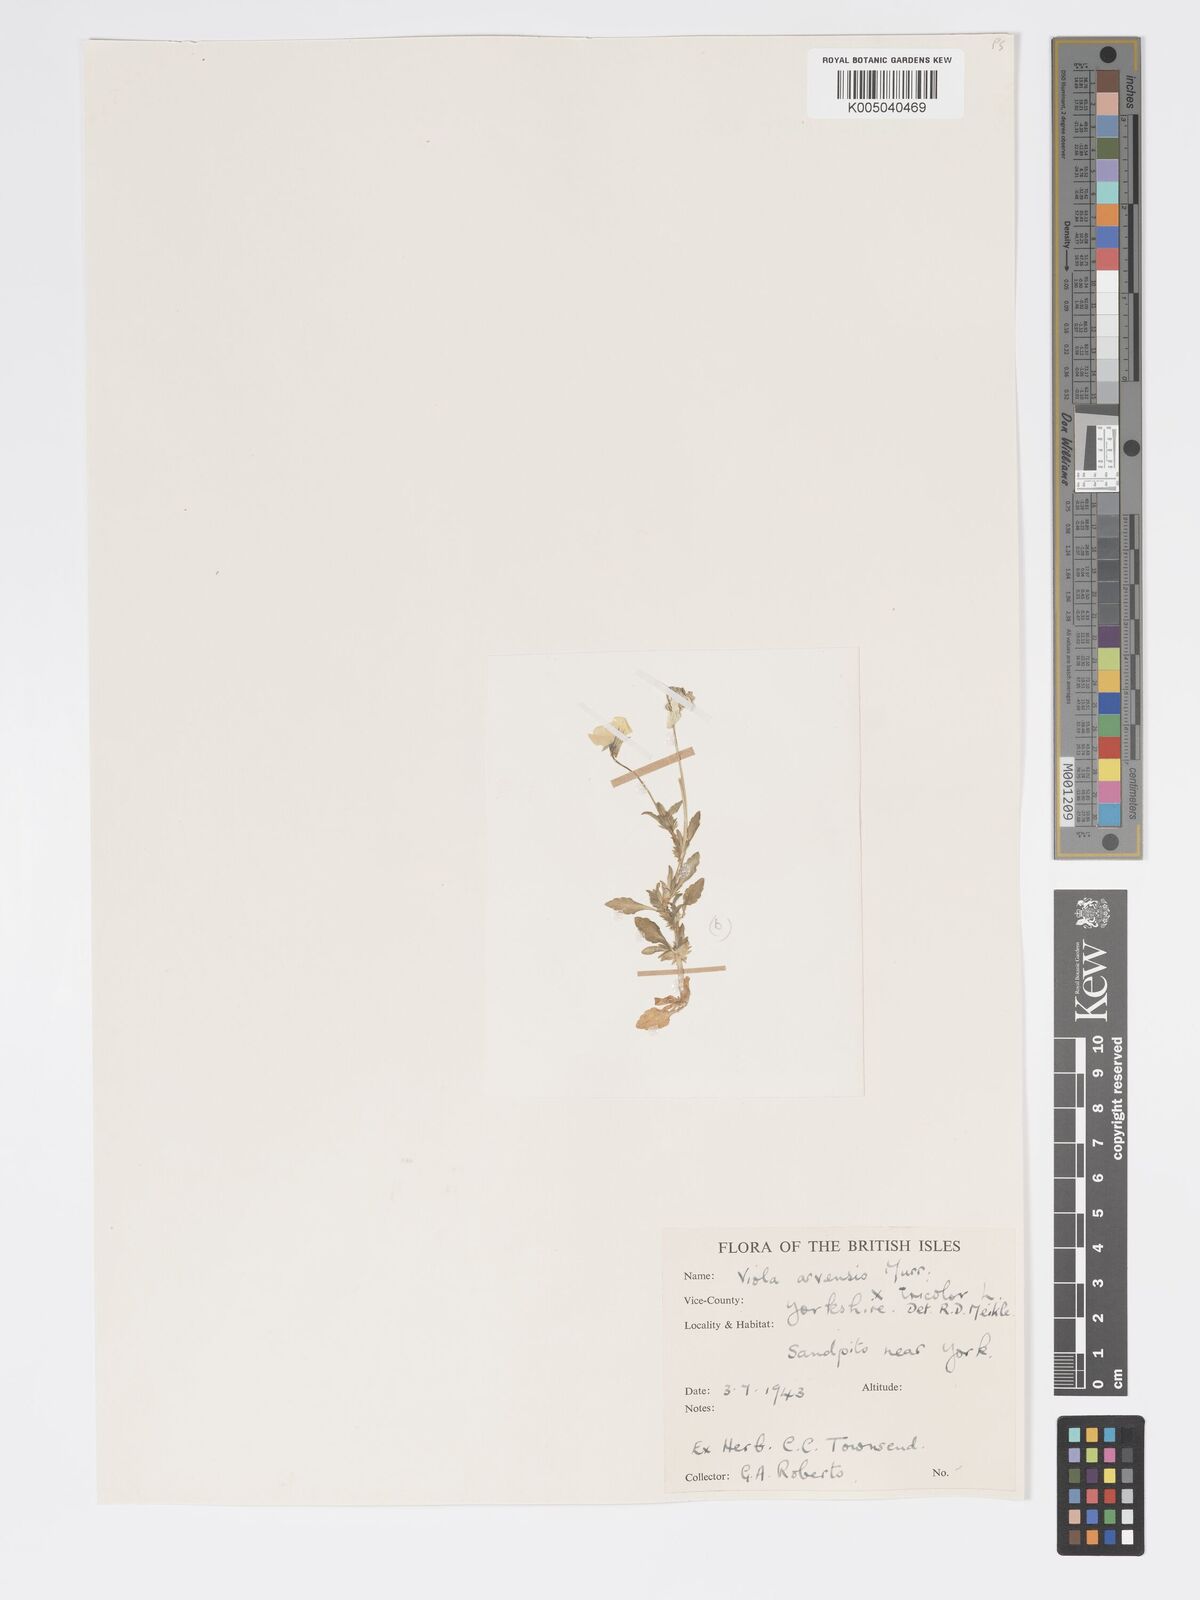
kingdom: Plantae
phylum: Tracheophyta
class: Magnoliopsida
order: Malpighiales
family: Violaceae
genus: Viola
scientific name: Viola arvensis
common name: Field pansy
